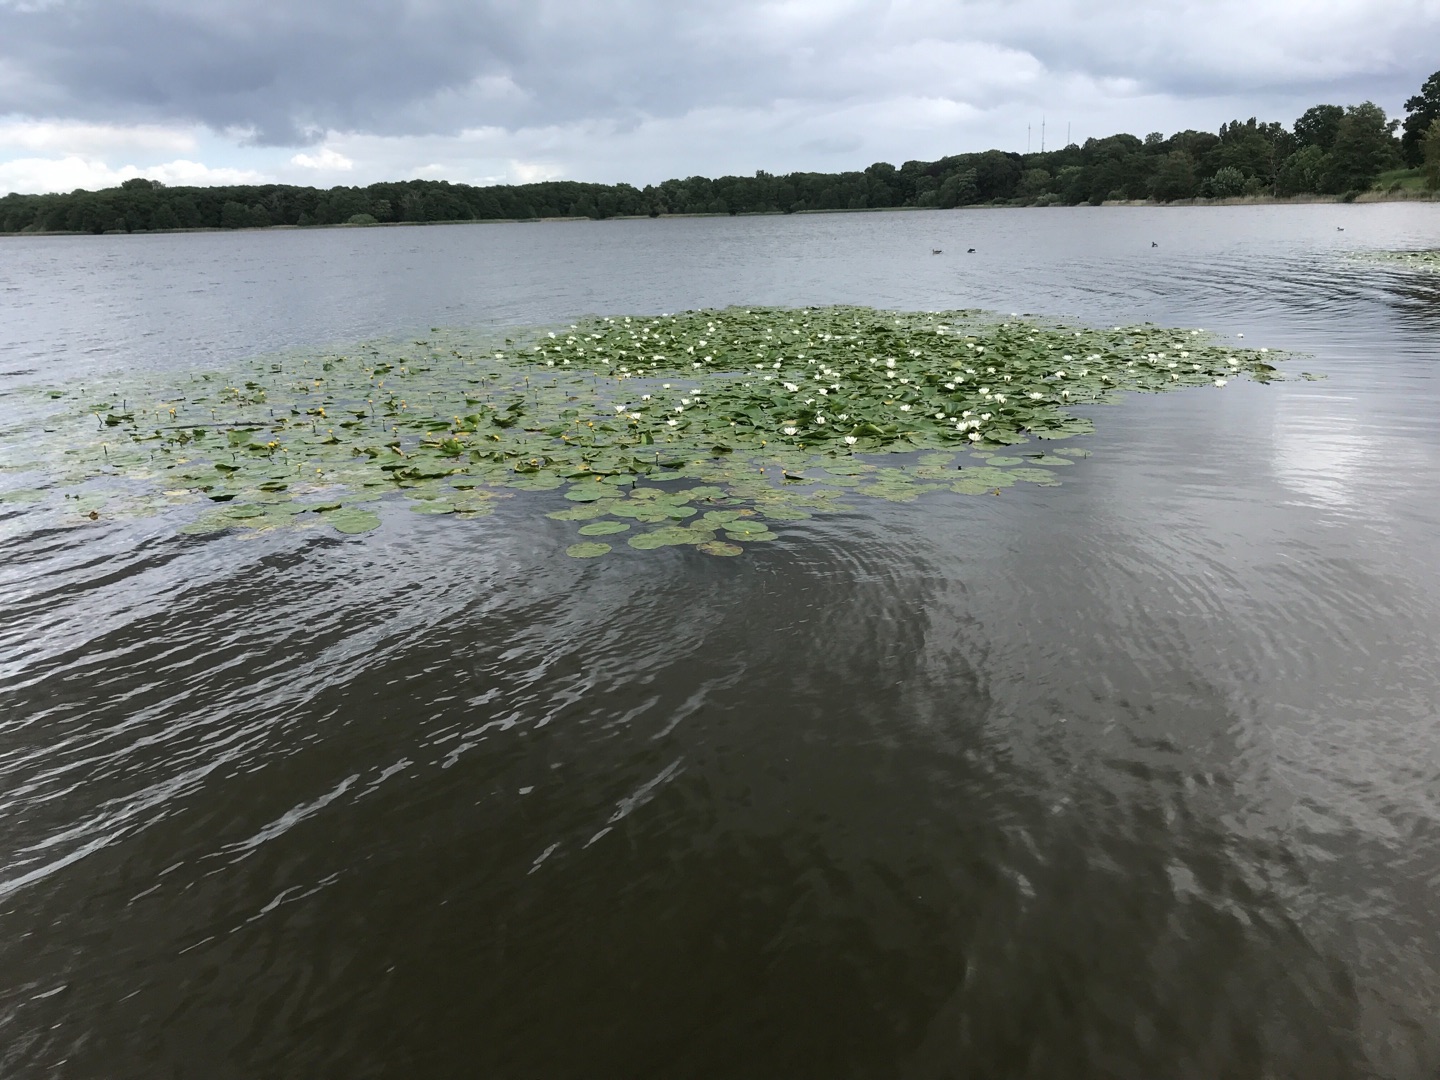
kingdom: Plantae
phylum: Tracheophyta
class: Magnoliopsida
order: Nymphaeales
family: Nymphaeaceae
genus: Nymphaea
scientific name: Nymphaea alba
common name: Hvid åkande
